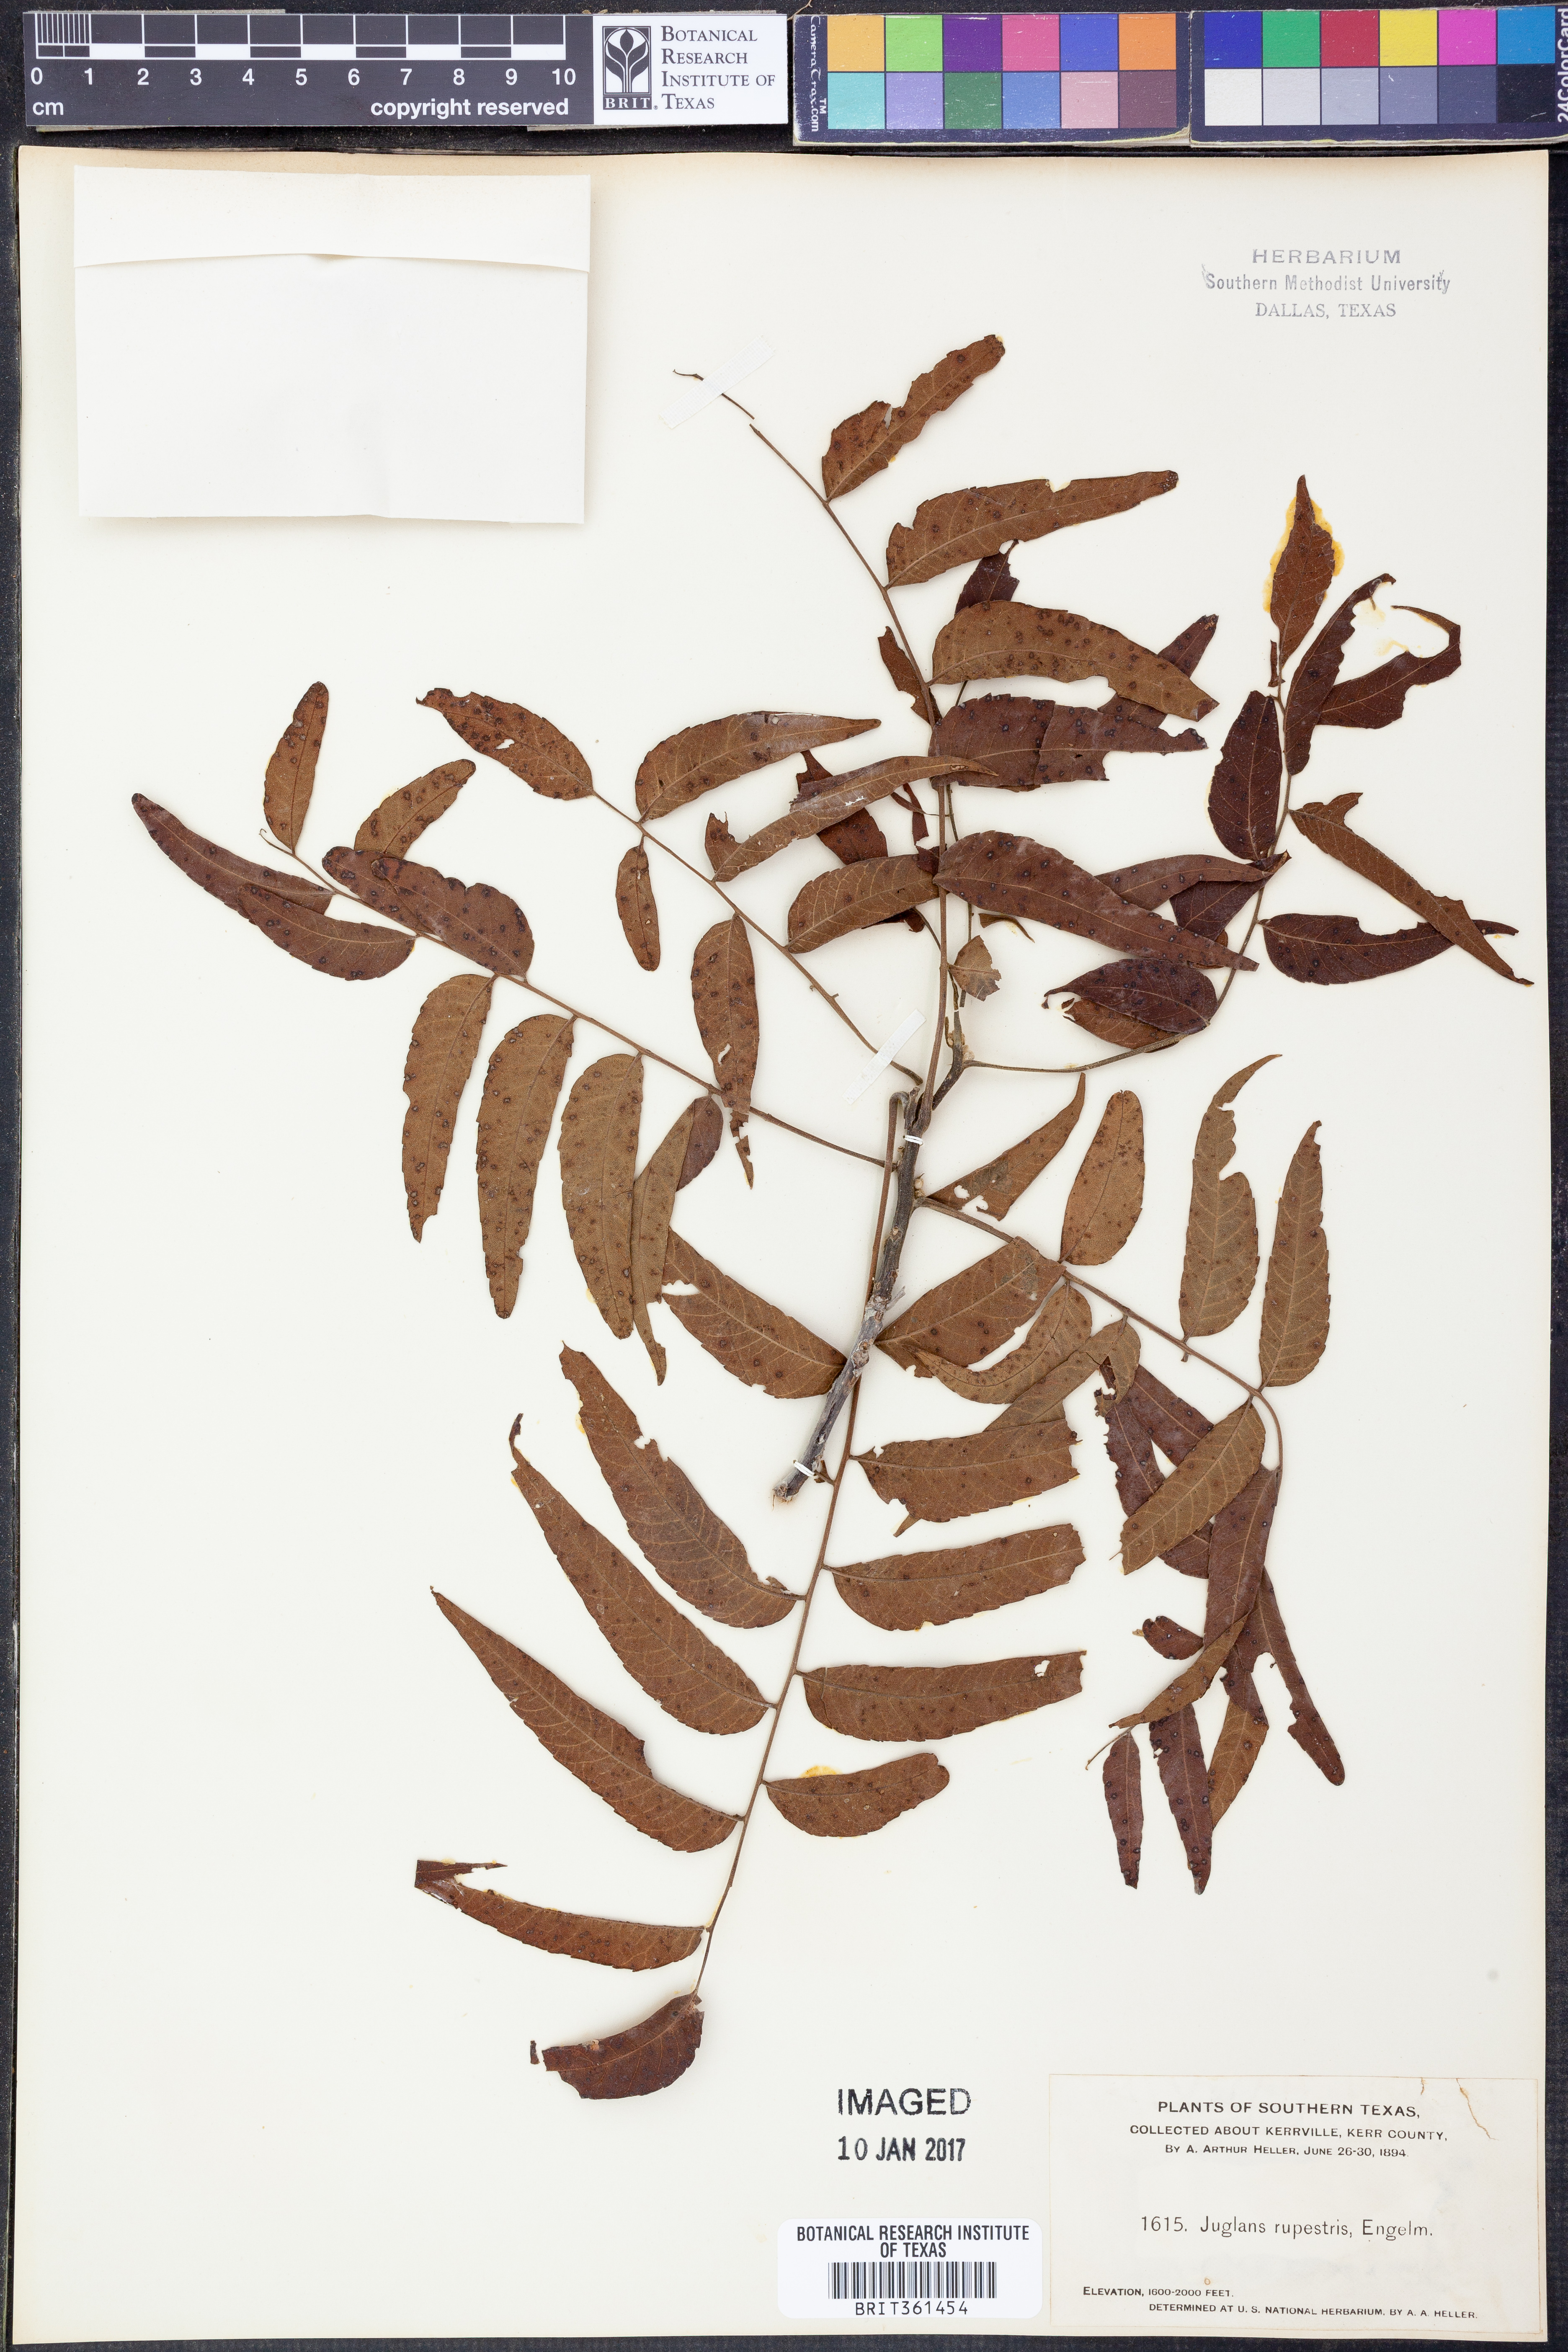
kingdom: Plantae
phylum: Tracheophyta
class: Magnoliopsida
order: Fagales
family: Juglandaceae
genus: Juglans
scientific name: Juglans microcarpa
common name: Texas walnut
